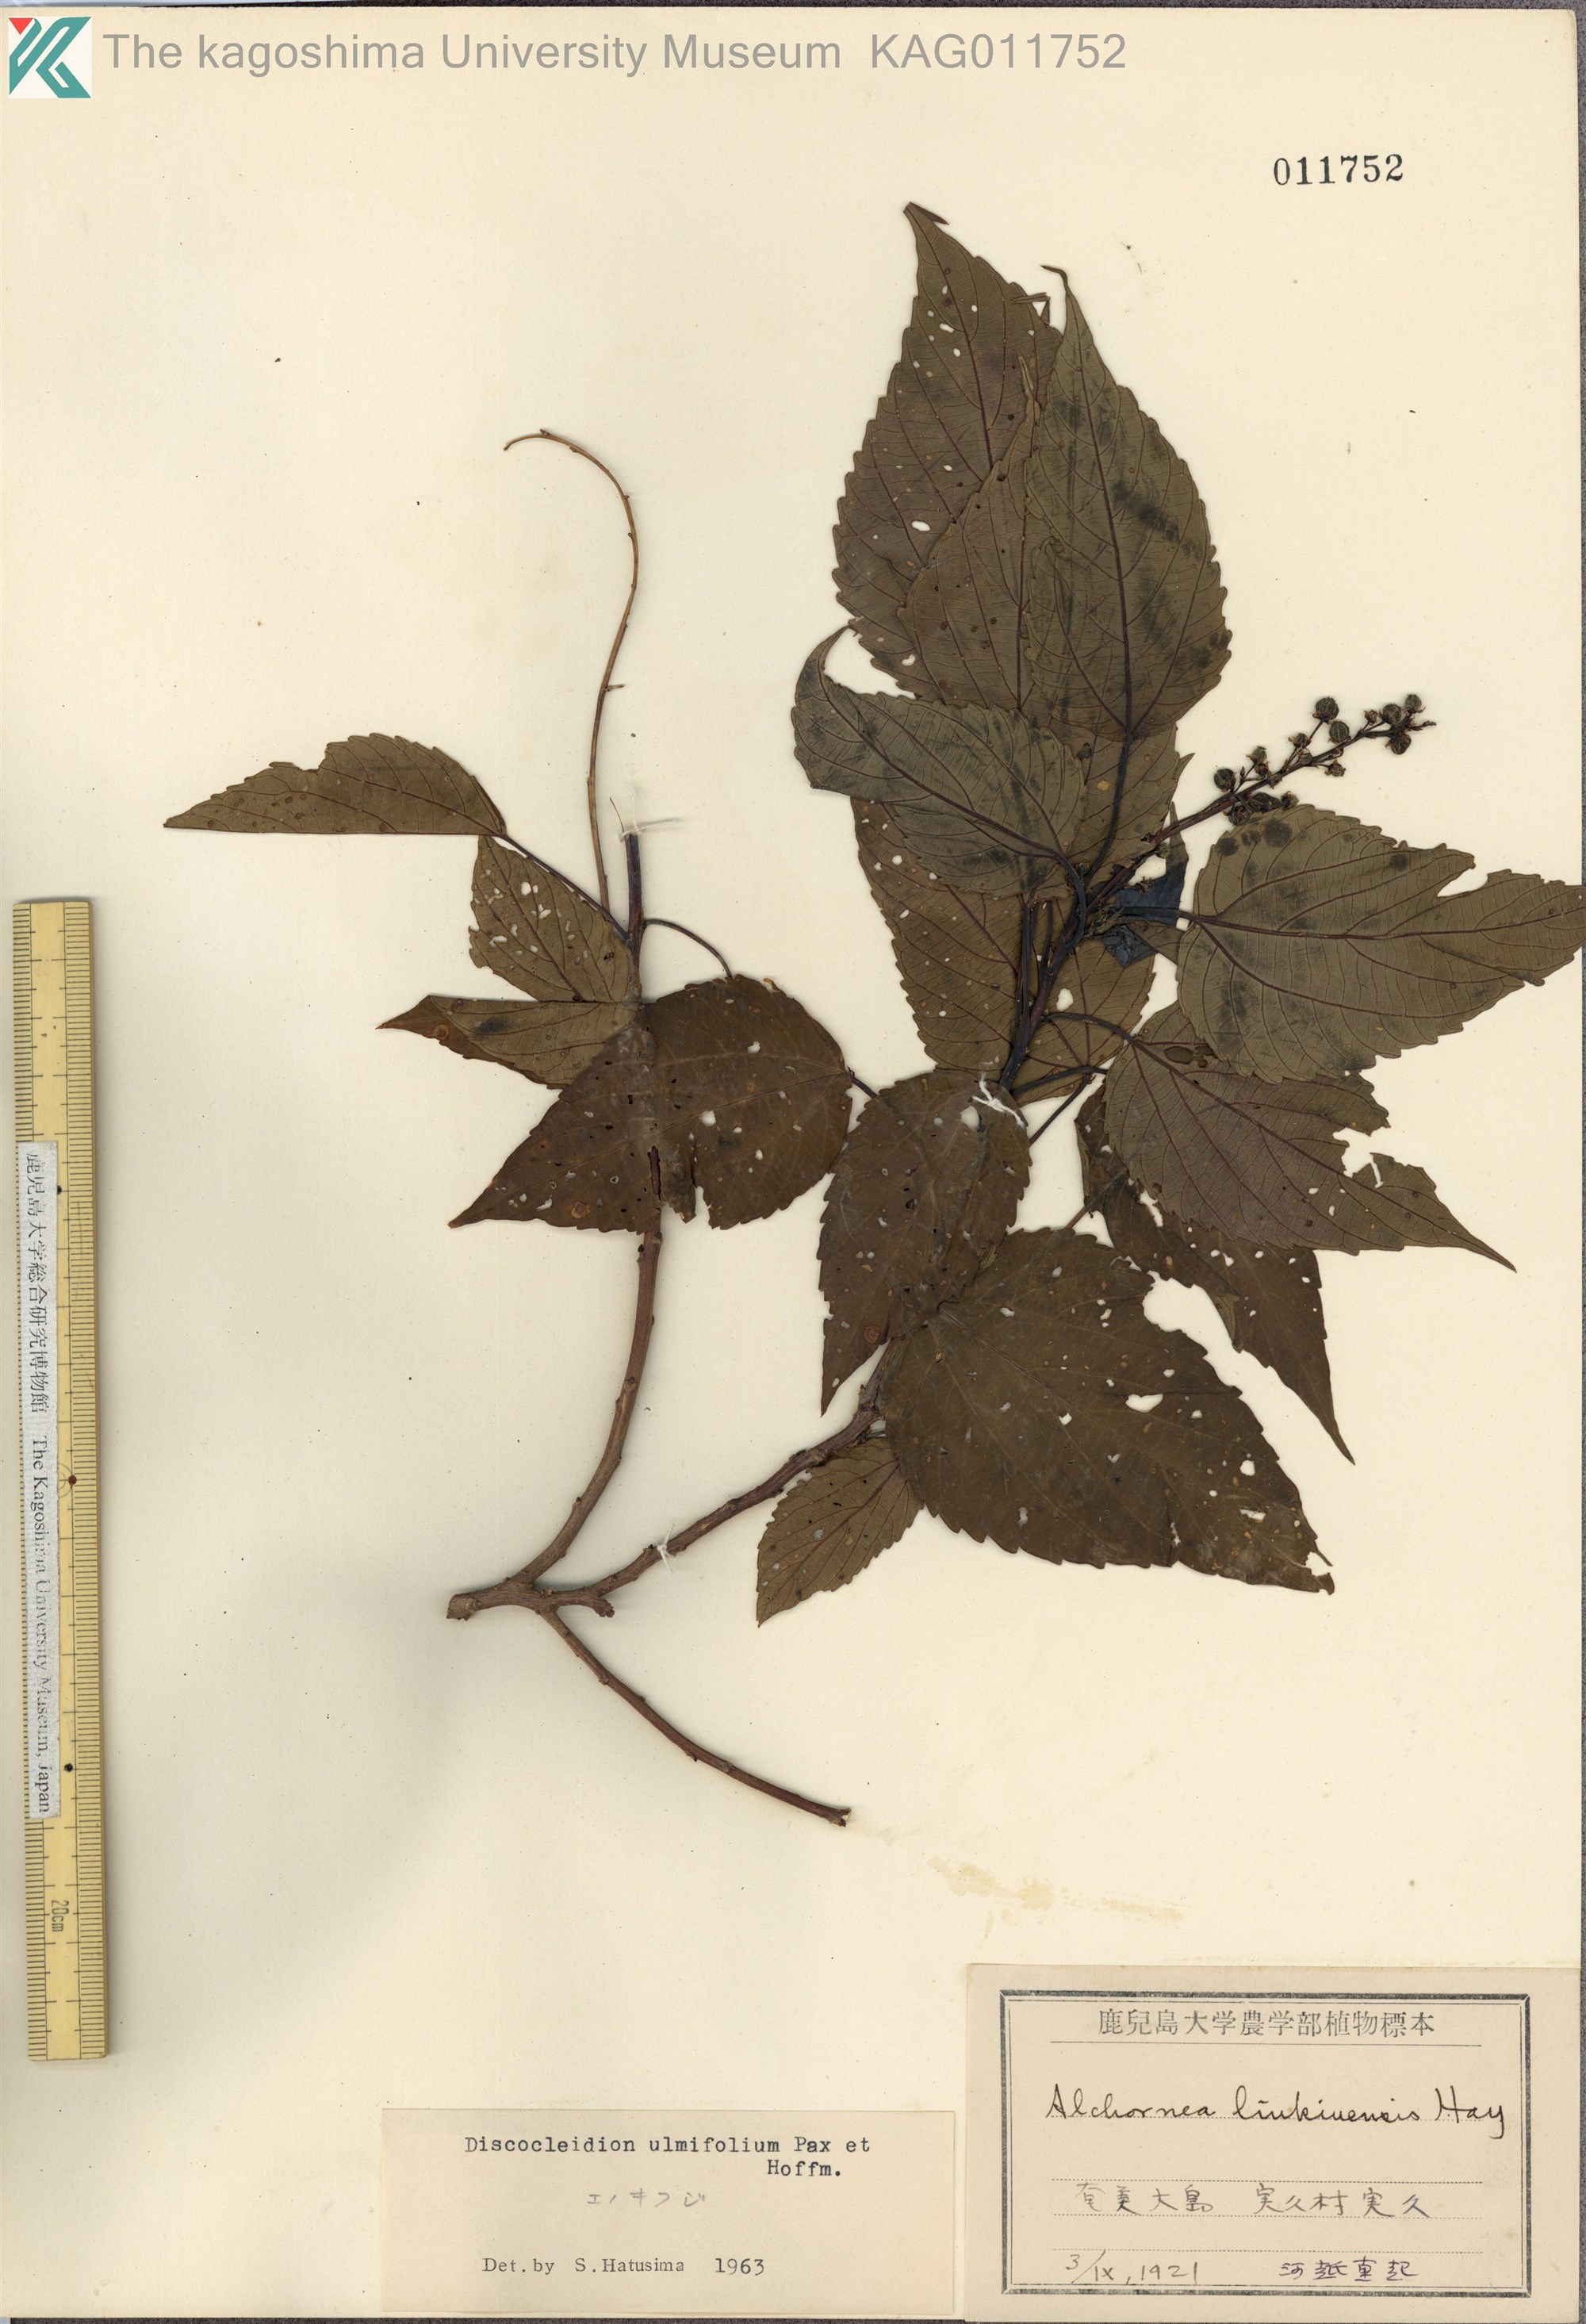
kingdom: Plantae
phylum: Tracheophyta
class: Magnoliopsida
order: Malpighiales
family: Euphorbiaceae
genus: Discocleidion
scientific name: Discocleidion ulmifolium
